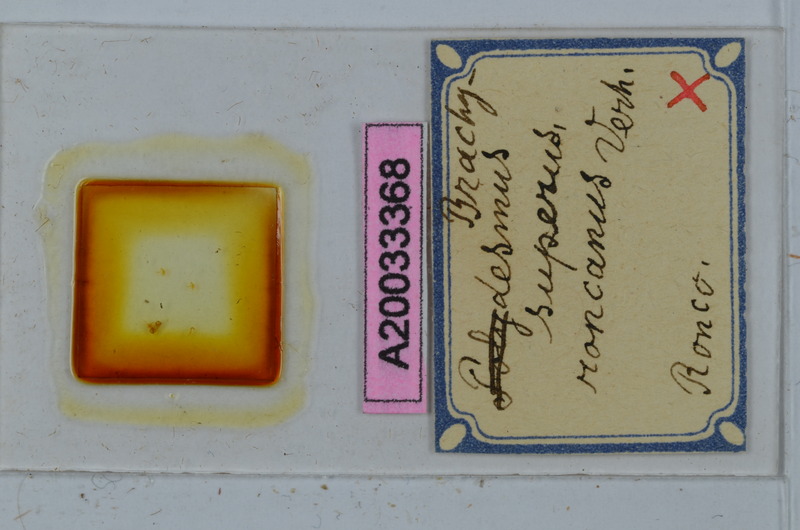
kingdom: Animalia
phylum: Arthropoda
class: Diplopoda
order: Polydesmida
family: Polydesmidae
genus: Brachydesmus
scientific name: Brachydesmus superus
